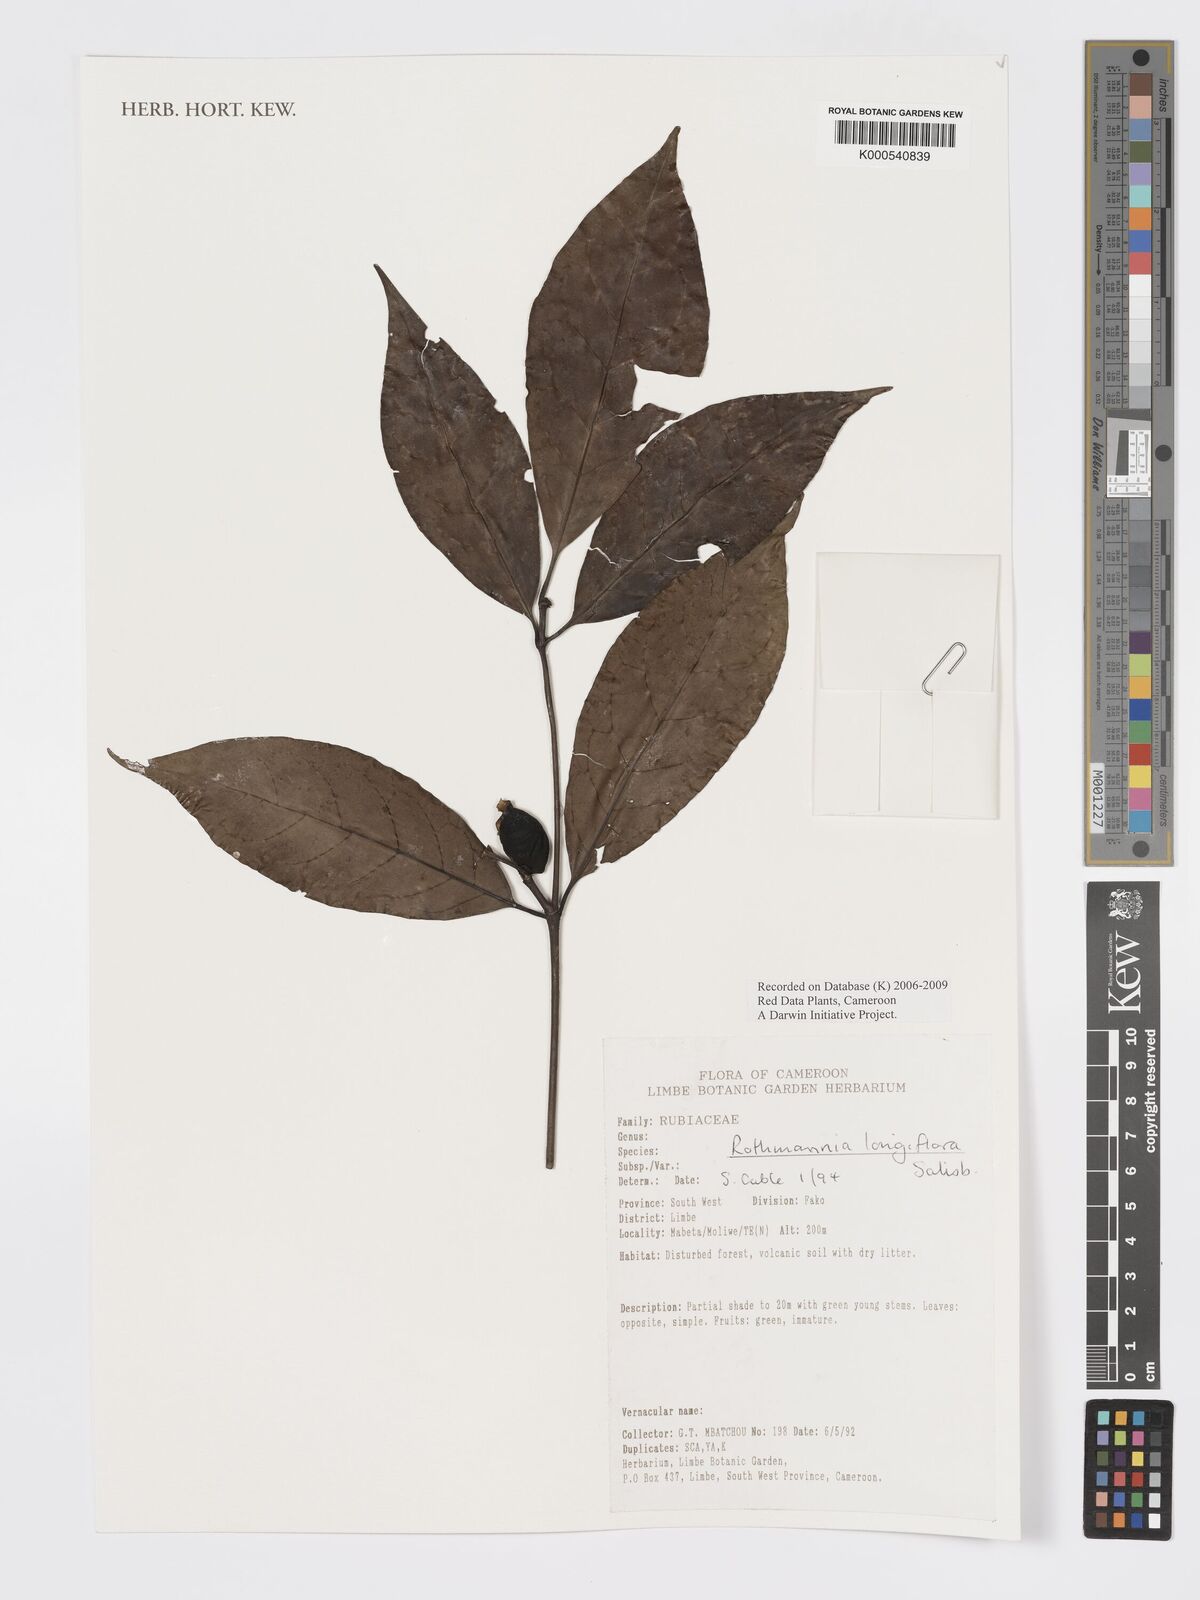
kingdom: Plantae
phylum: Tracheophyta
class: Magnoliopsida
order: Gentianales
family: Rubiaceae
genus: Rothmannia
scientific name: Rothmannia longiflora
